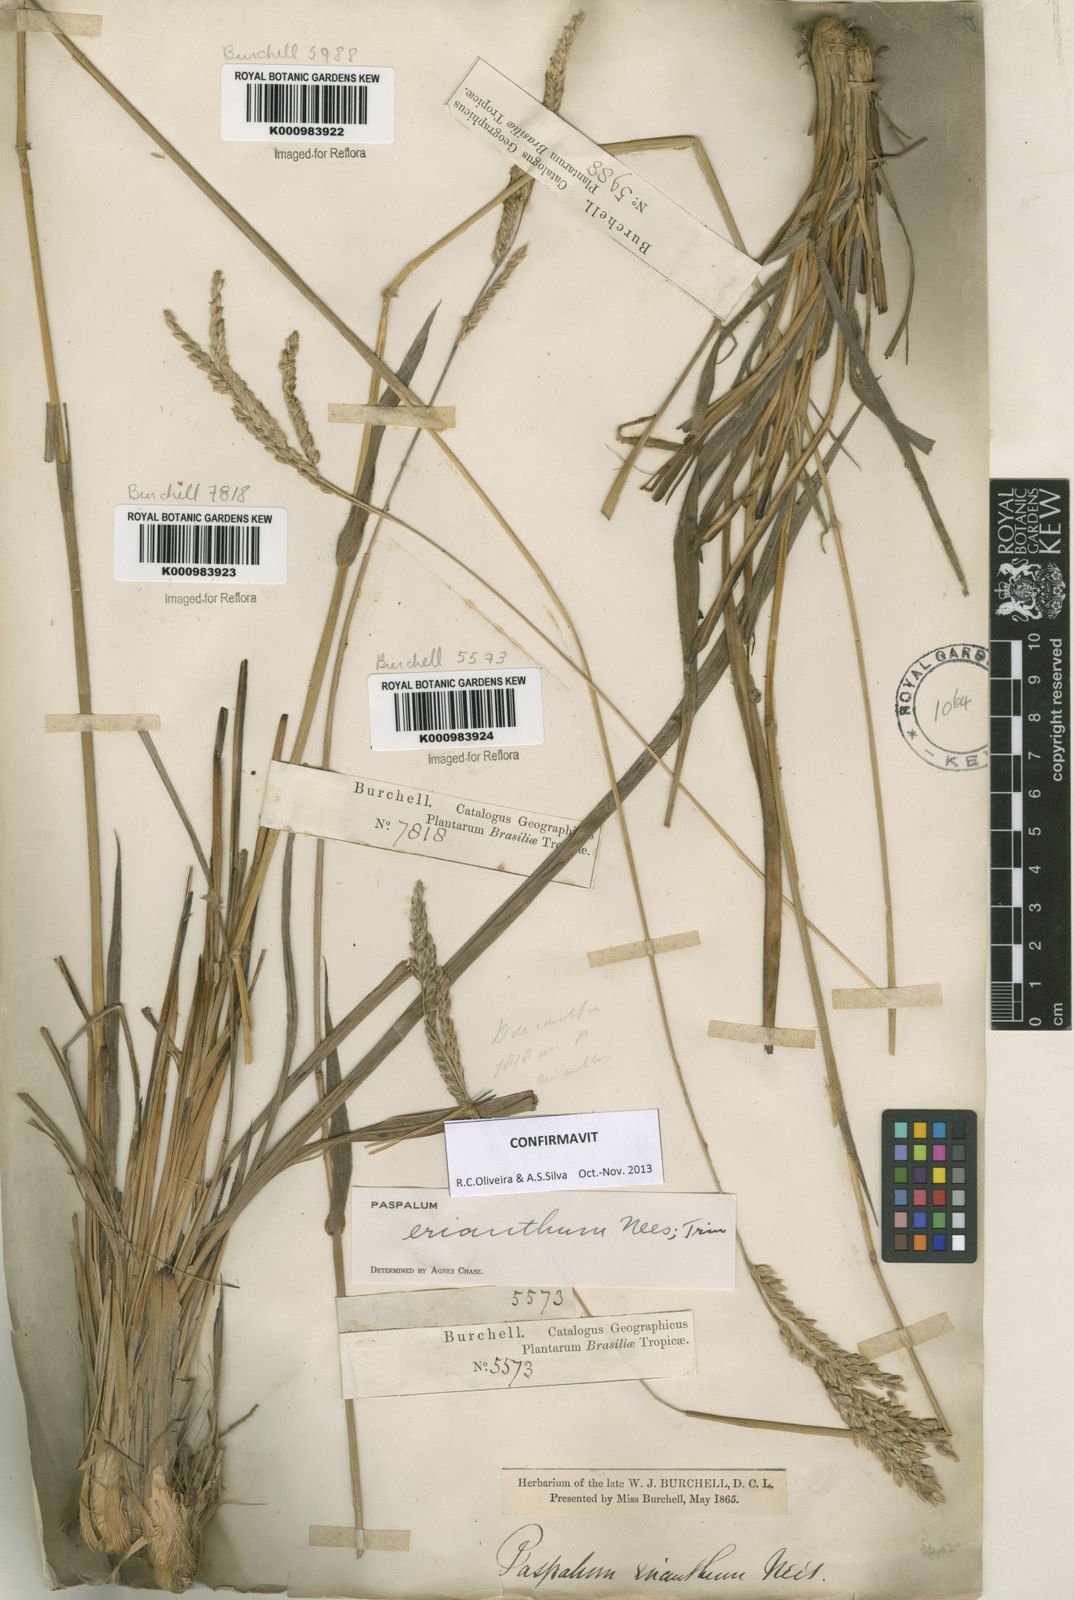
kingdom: Plantae
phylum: Tracheophyta
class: Liliopsida
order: Poales
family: Poaceae
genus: Paspalum
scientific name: Paspalum erianthum
